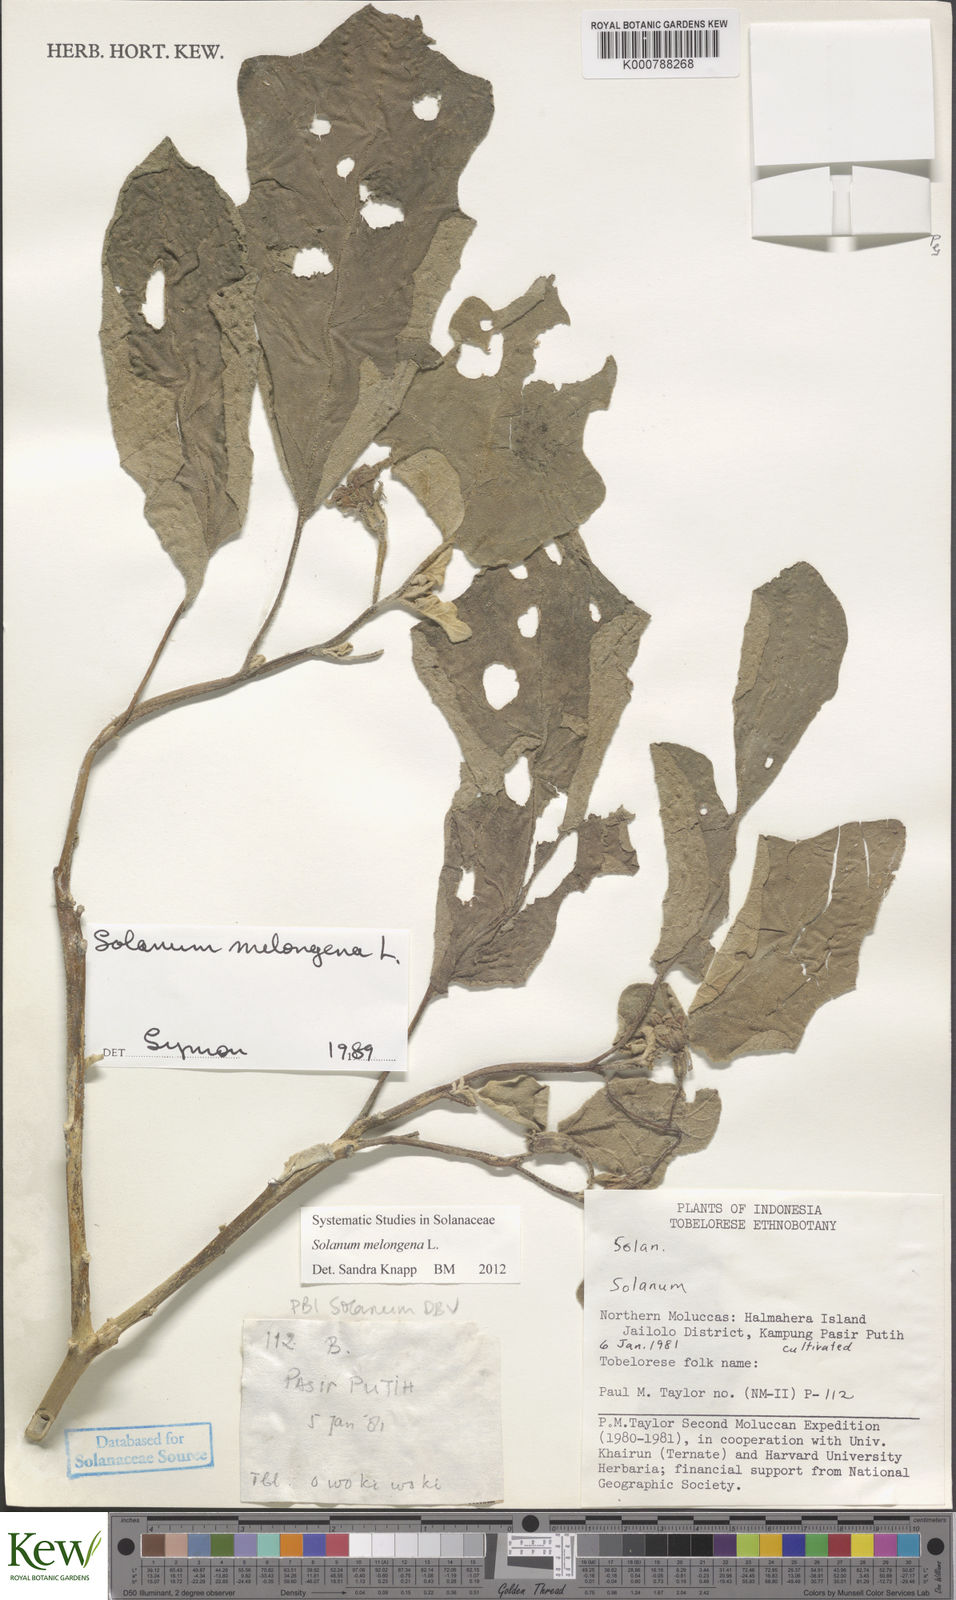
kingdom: Plantae
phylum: Tracheophyta
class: Magnoliopsida
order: Solanales
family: Solanaceae
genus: Solanum
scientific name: Solanum melongena
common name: Eggplant
